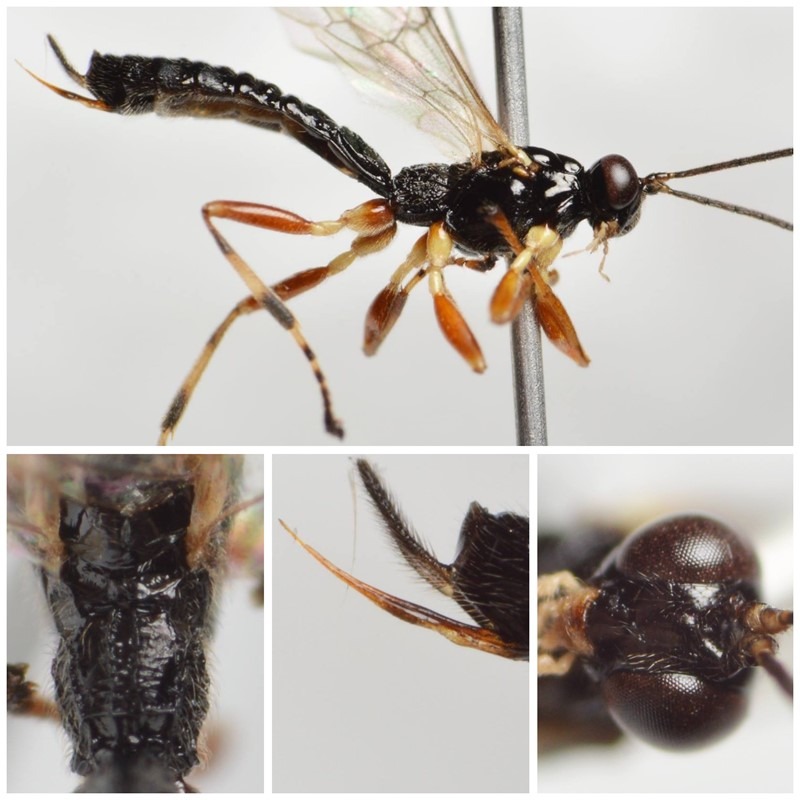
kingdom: Animalia
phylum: Arthropoda
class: Insecta
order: Hymenoptera
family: Ichneumonidae
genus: Acrodactyla
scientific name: Acrodactyla carinator
